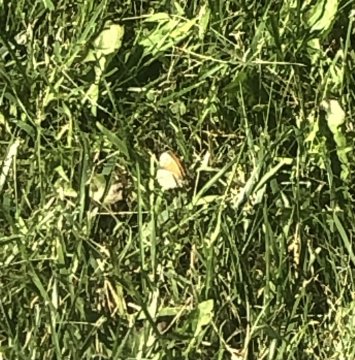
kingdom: Animalia
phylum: Arthropoda
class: Insecta
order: Lepidoptera
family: Nymphalidae
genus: Coenonympha
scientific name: Coenonympha tullia
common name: Large Heath
